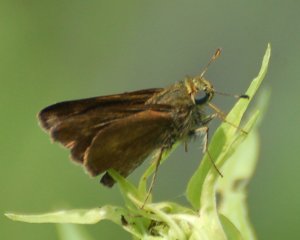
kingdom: Animalia
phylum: Arthropoda
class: Insecta
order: Lepidoptera
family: Hesperiidae
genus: Euphyes
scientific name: Euphyes vestris
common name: Dun Skipper
